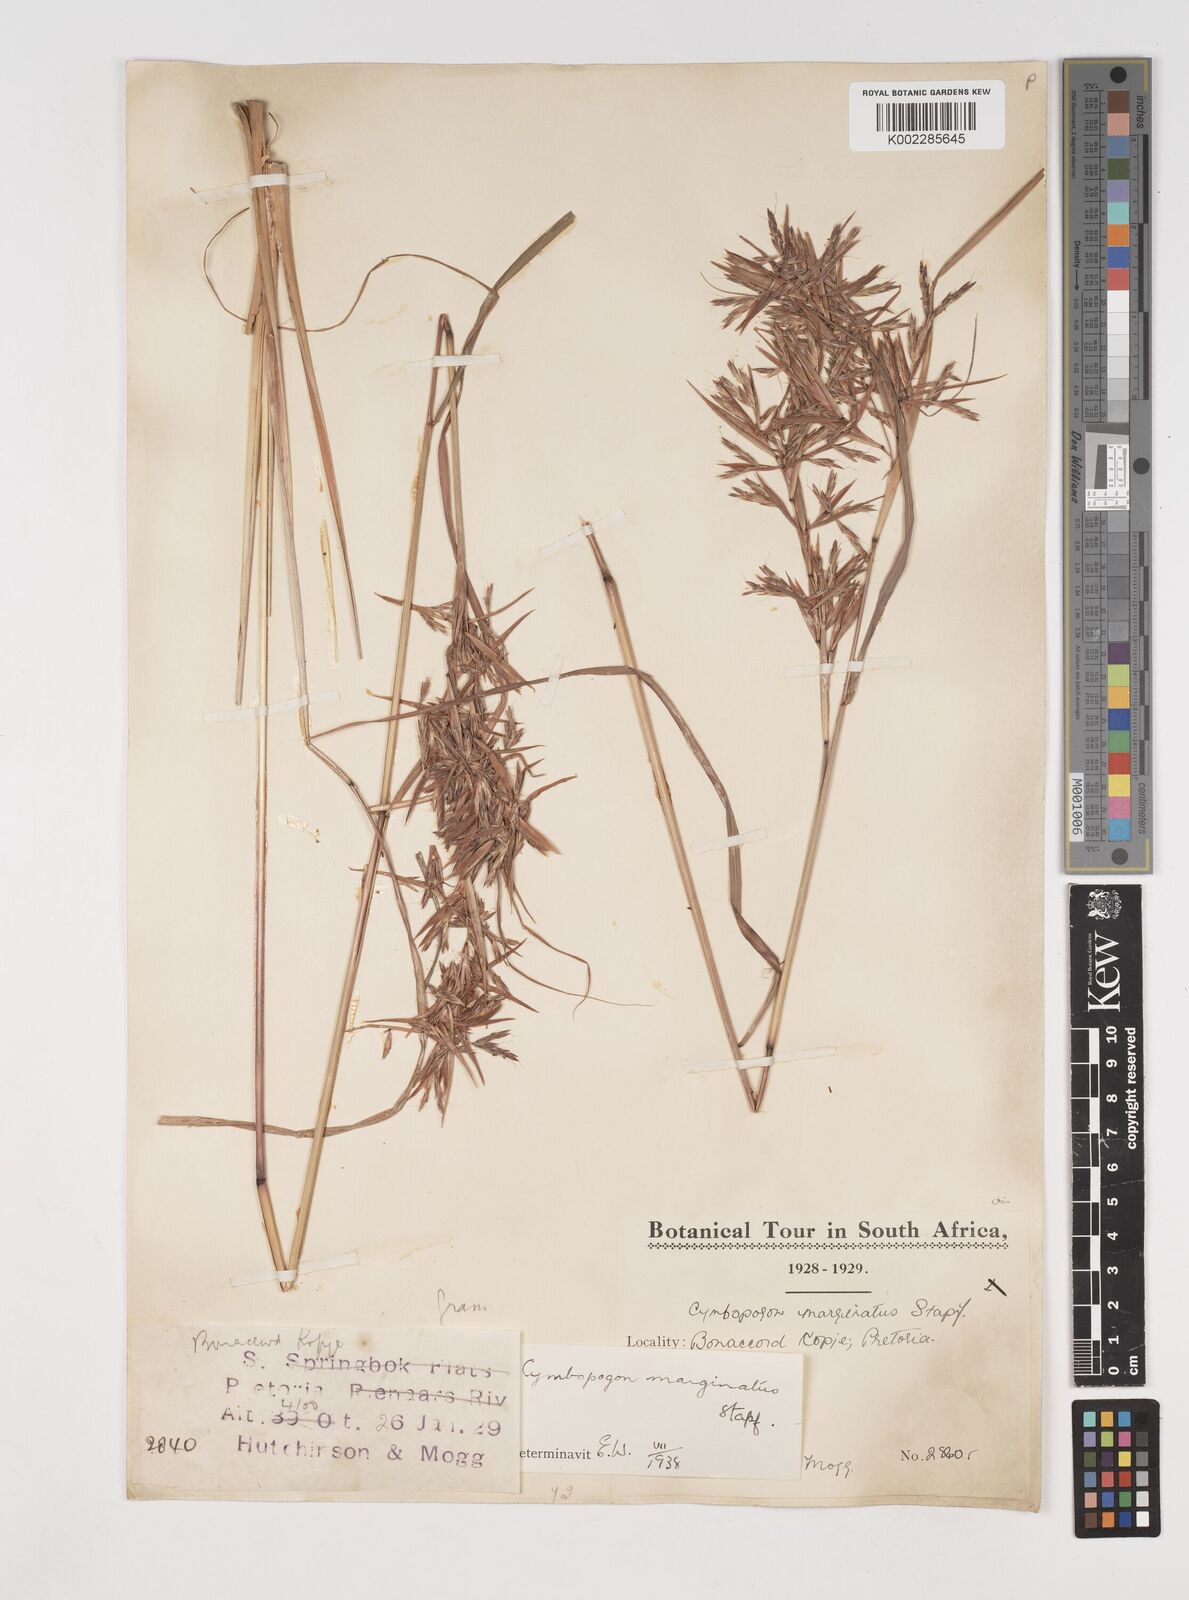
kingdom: Plantae
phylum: Tracheophyta
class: Liliopsida
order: Poales
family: Poaceae
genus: Cymbopogon
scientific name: Cymbopogon marginatus
